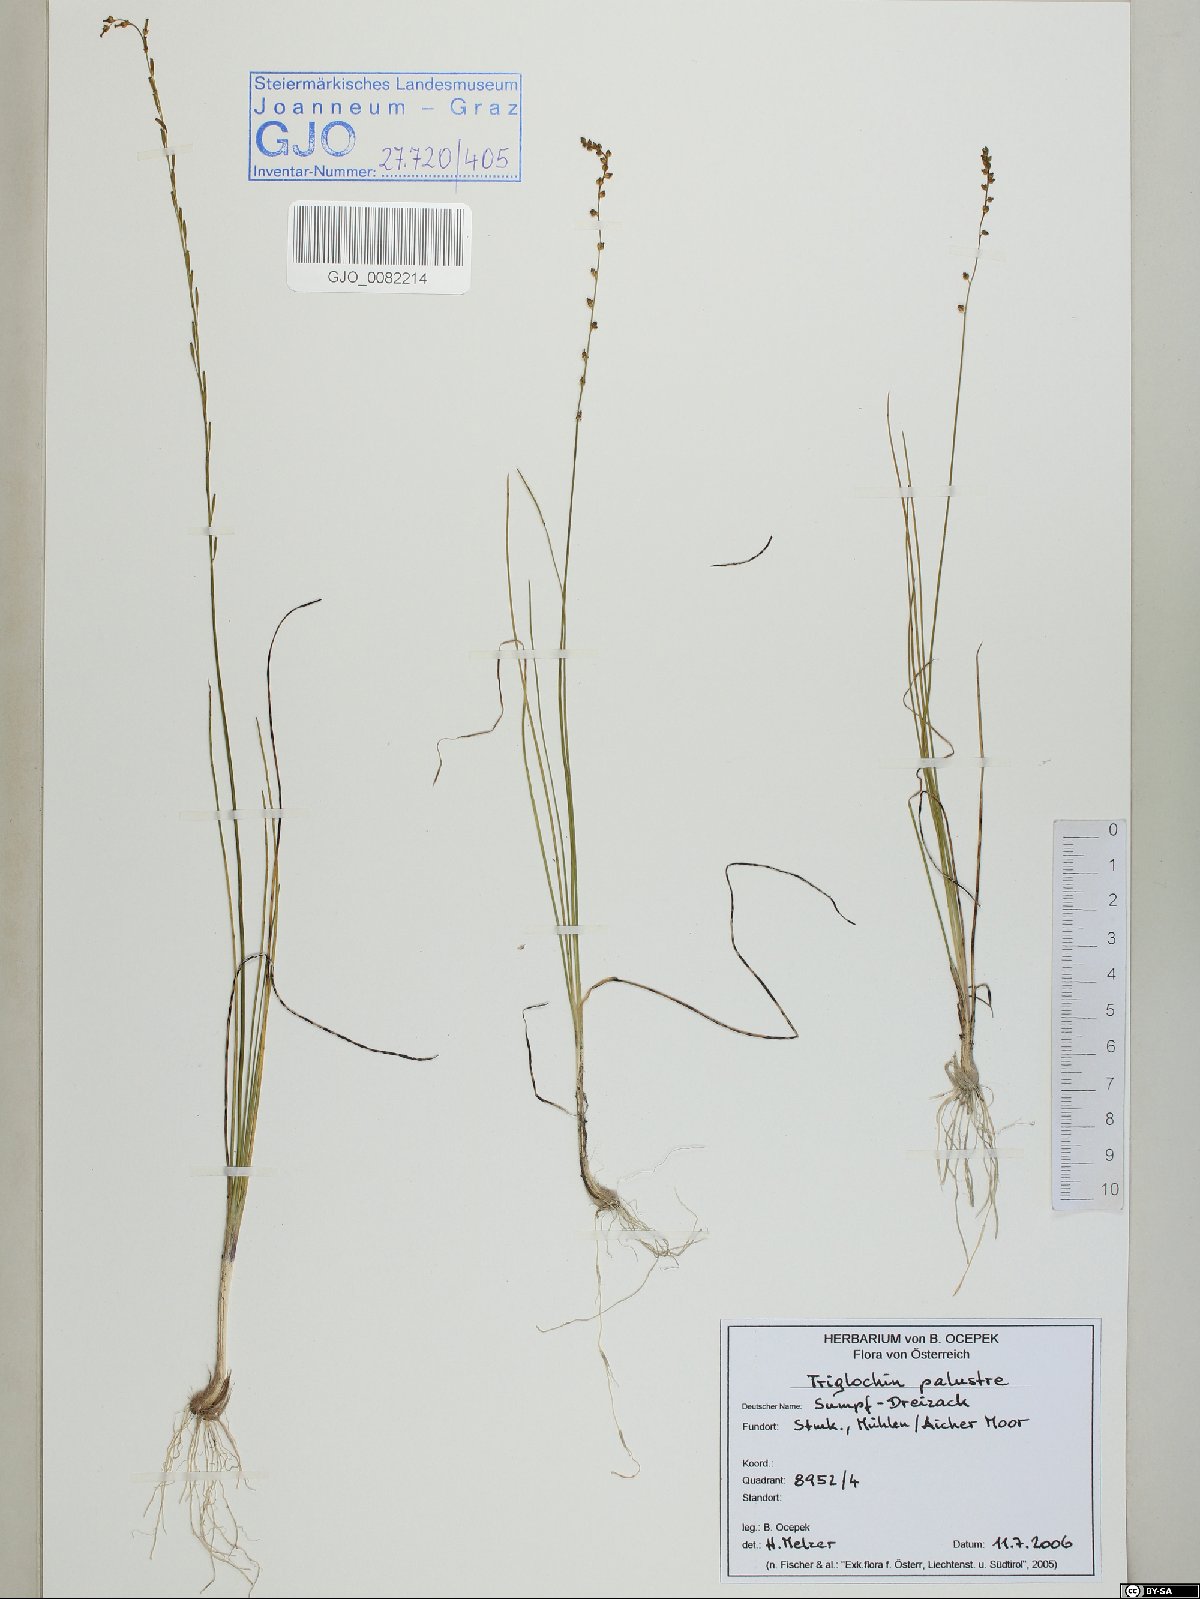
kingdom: Plantae
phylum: Tracheophyta
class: Liliopsida
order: Alismatales
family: Juncaginaceae
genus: Triglochin
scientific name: Triglochin palustris
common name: Marsh arrowgrass
